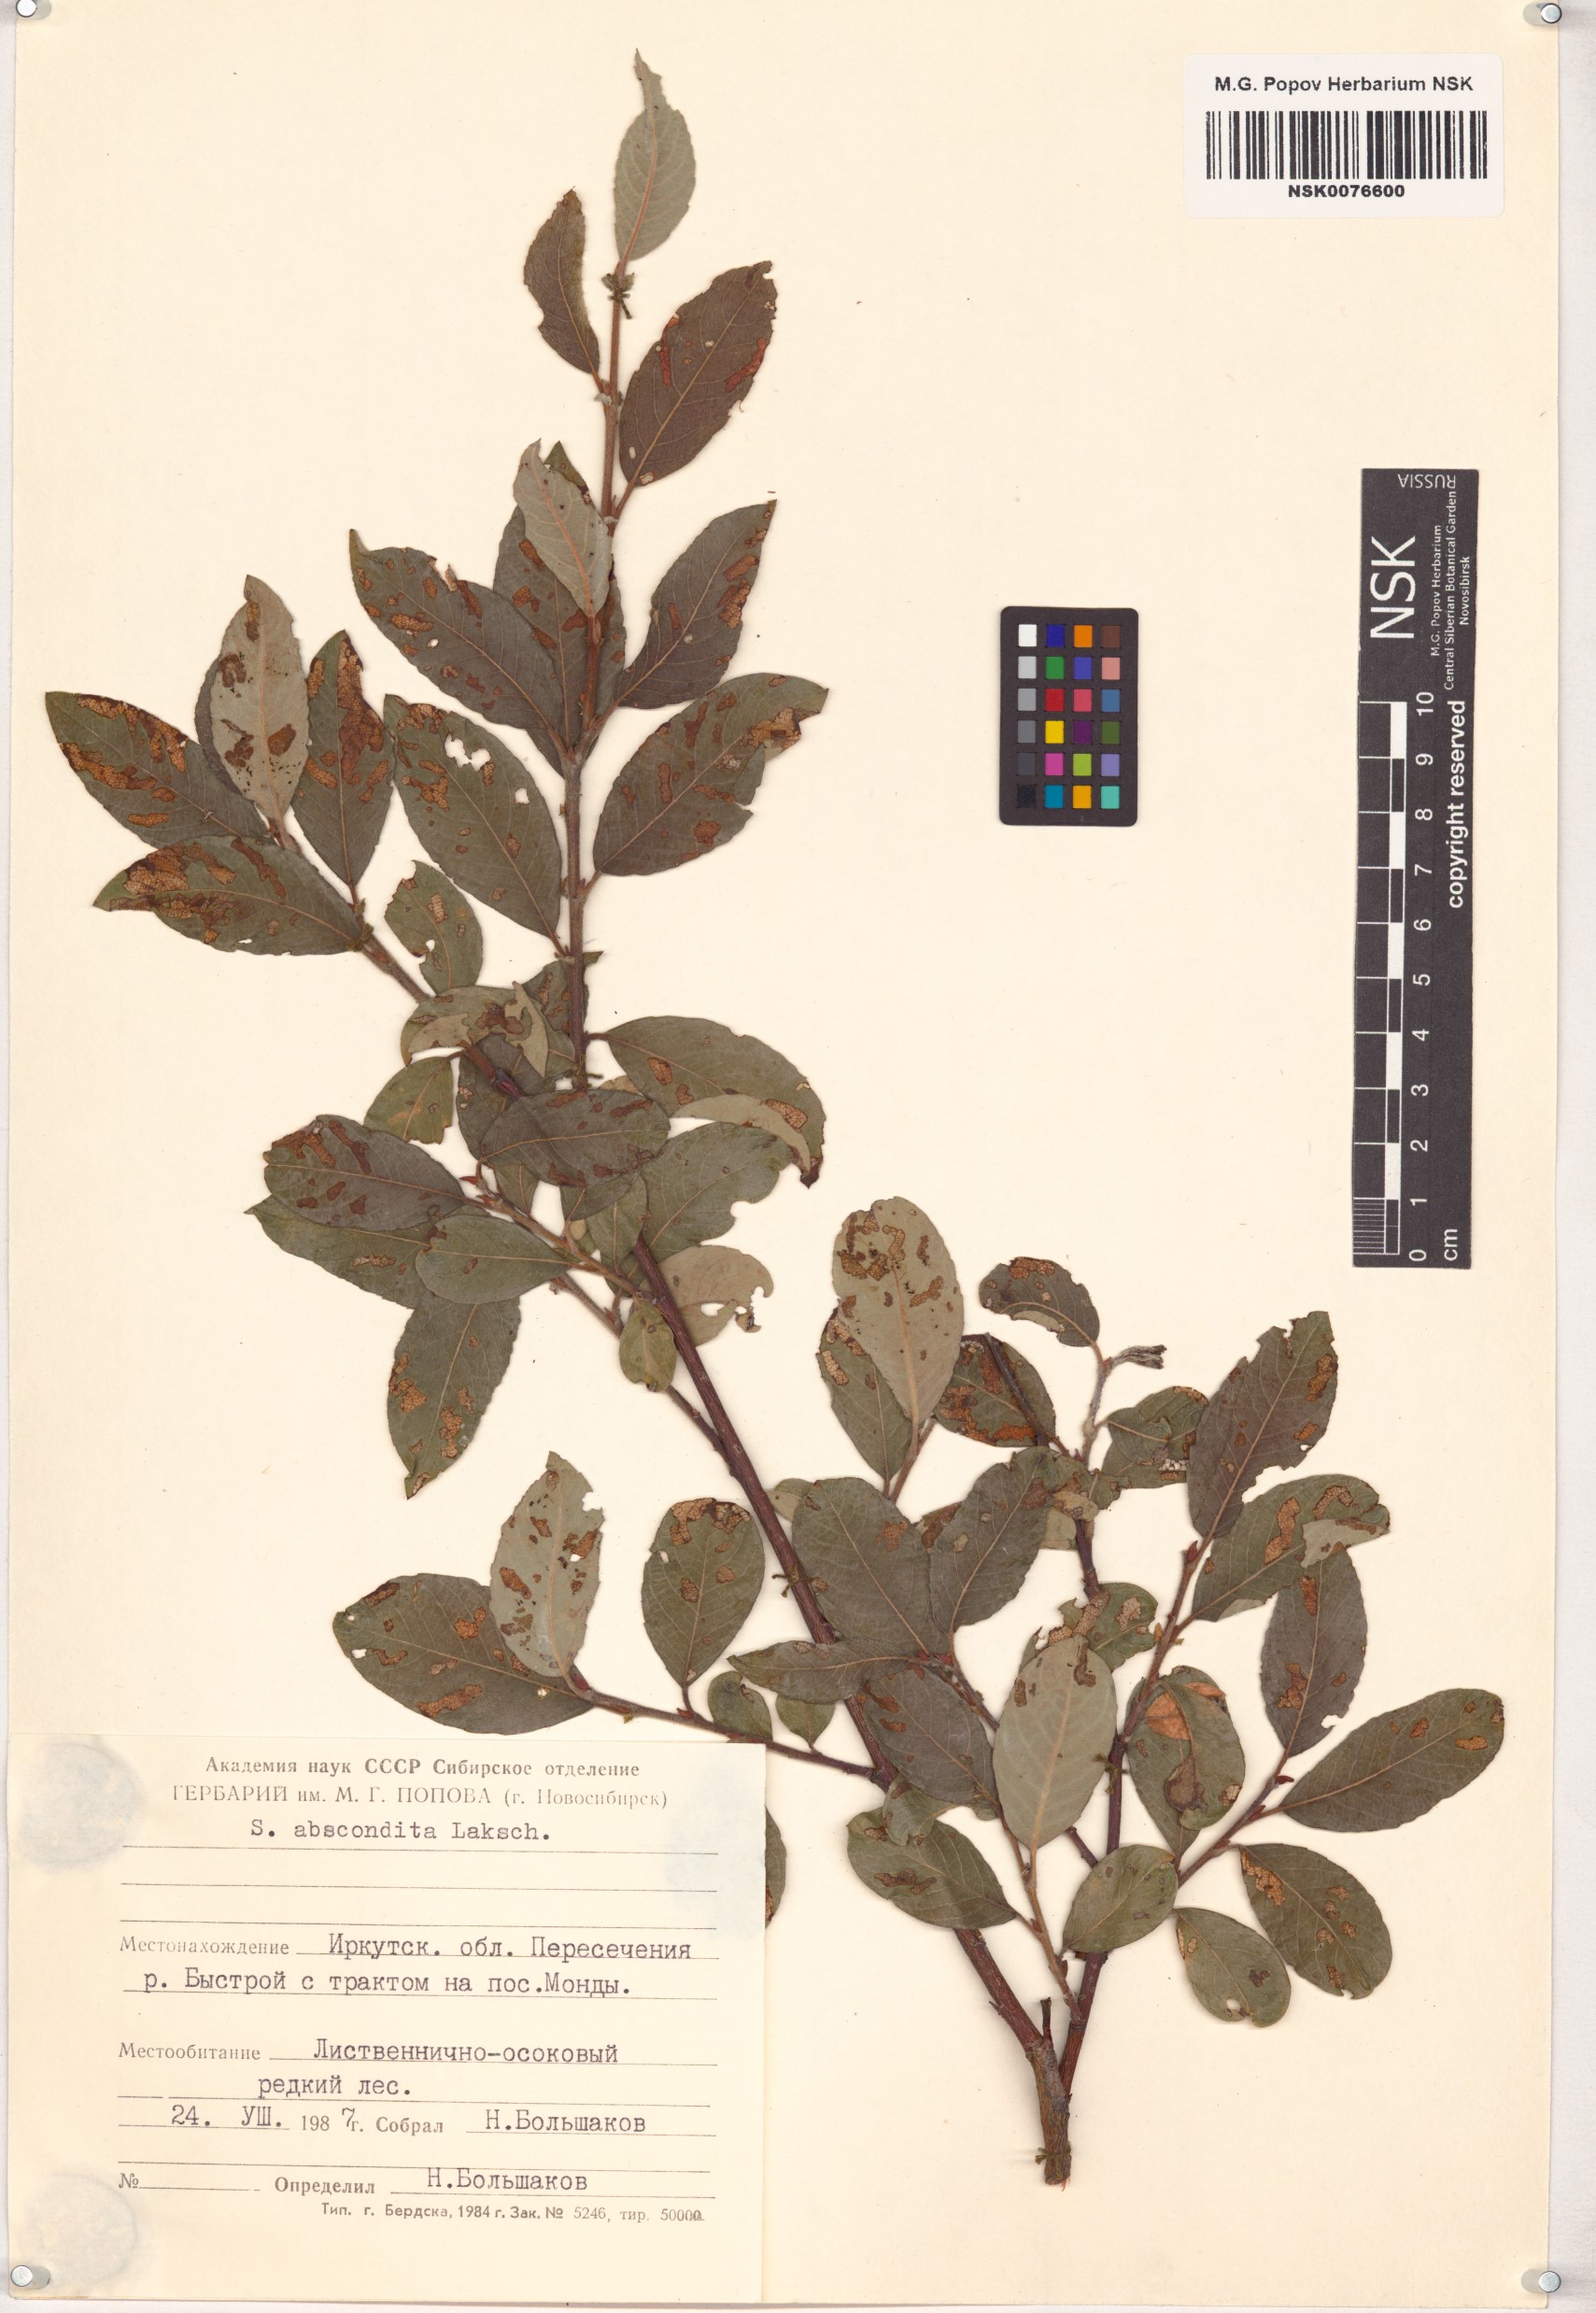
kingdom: Plantae
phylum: Tracheophyta
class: Magnoliopsida
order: Malpighiales
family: Salicaceae
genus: Salix
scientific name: Salix abscondita
